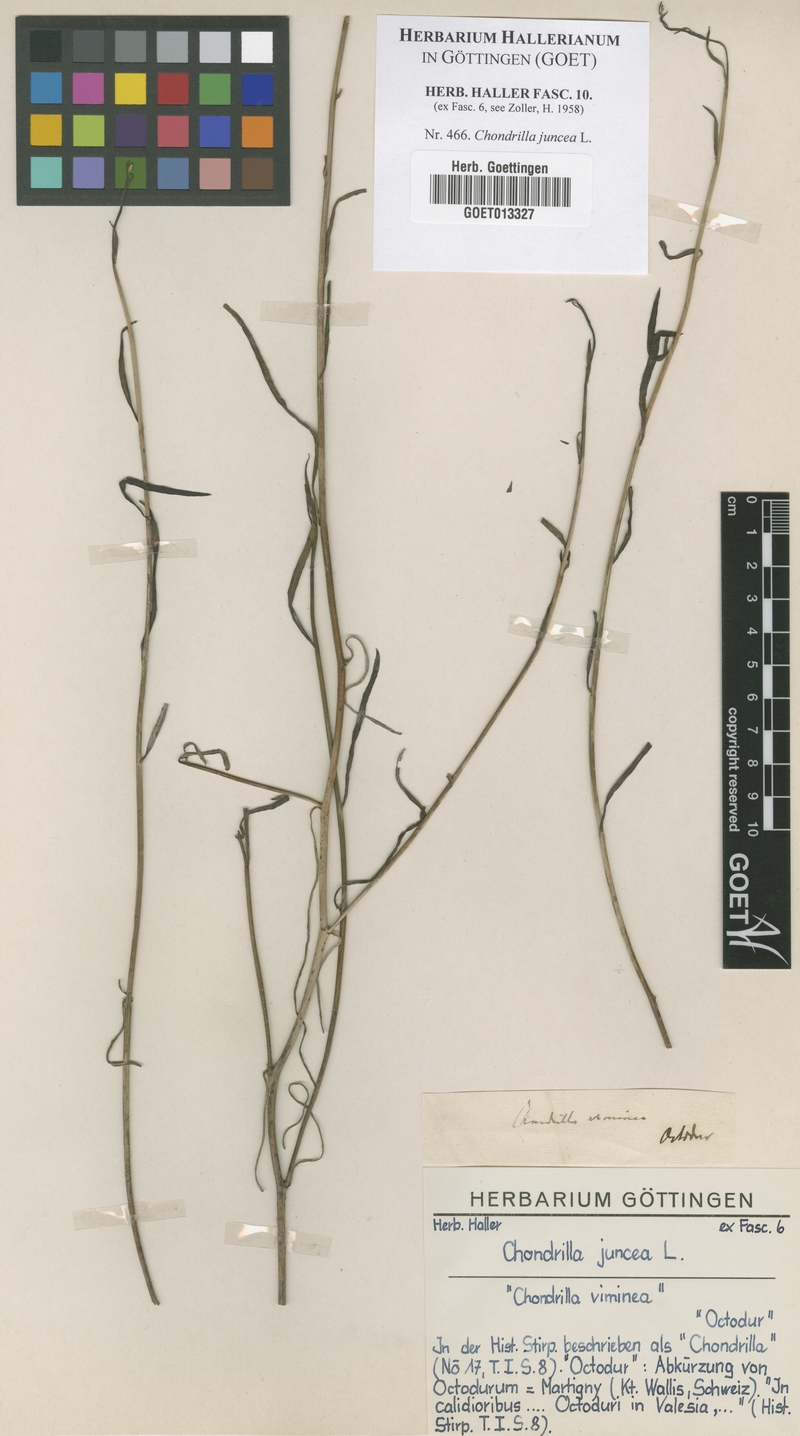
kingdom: Plantae
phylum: Tracheophyta
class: Magnoliopsida
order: Asterales
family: Asteraceae
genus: Chondrilla
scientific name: Chondrilla juncea
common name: Skeleton weed
